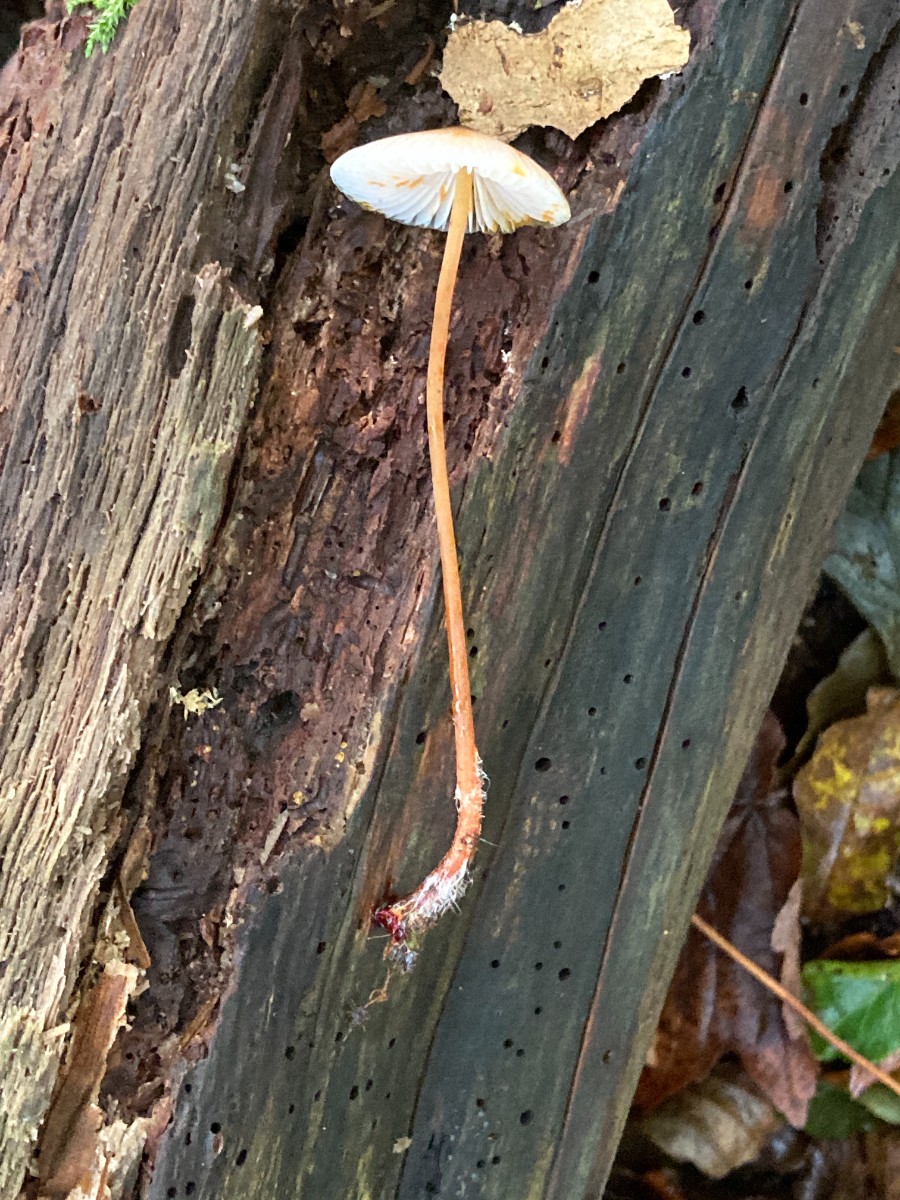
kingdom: Fungi
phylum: Basidiomycota
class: Agaricomycetes
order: Agaricales
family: Mycenaceae
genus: Mycena
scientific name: Mycena crocata
